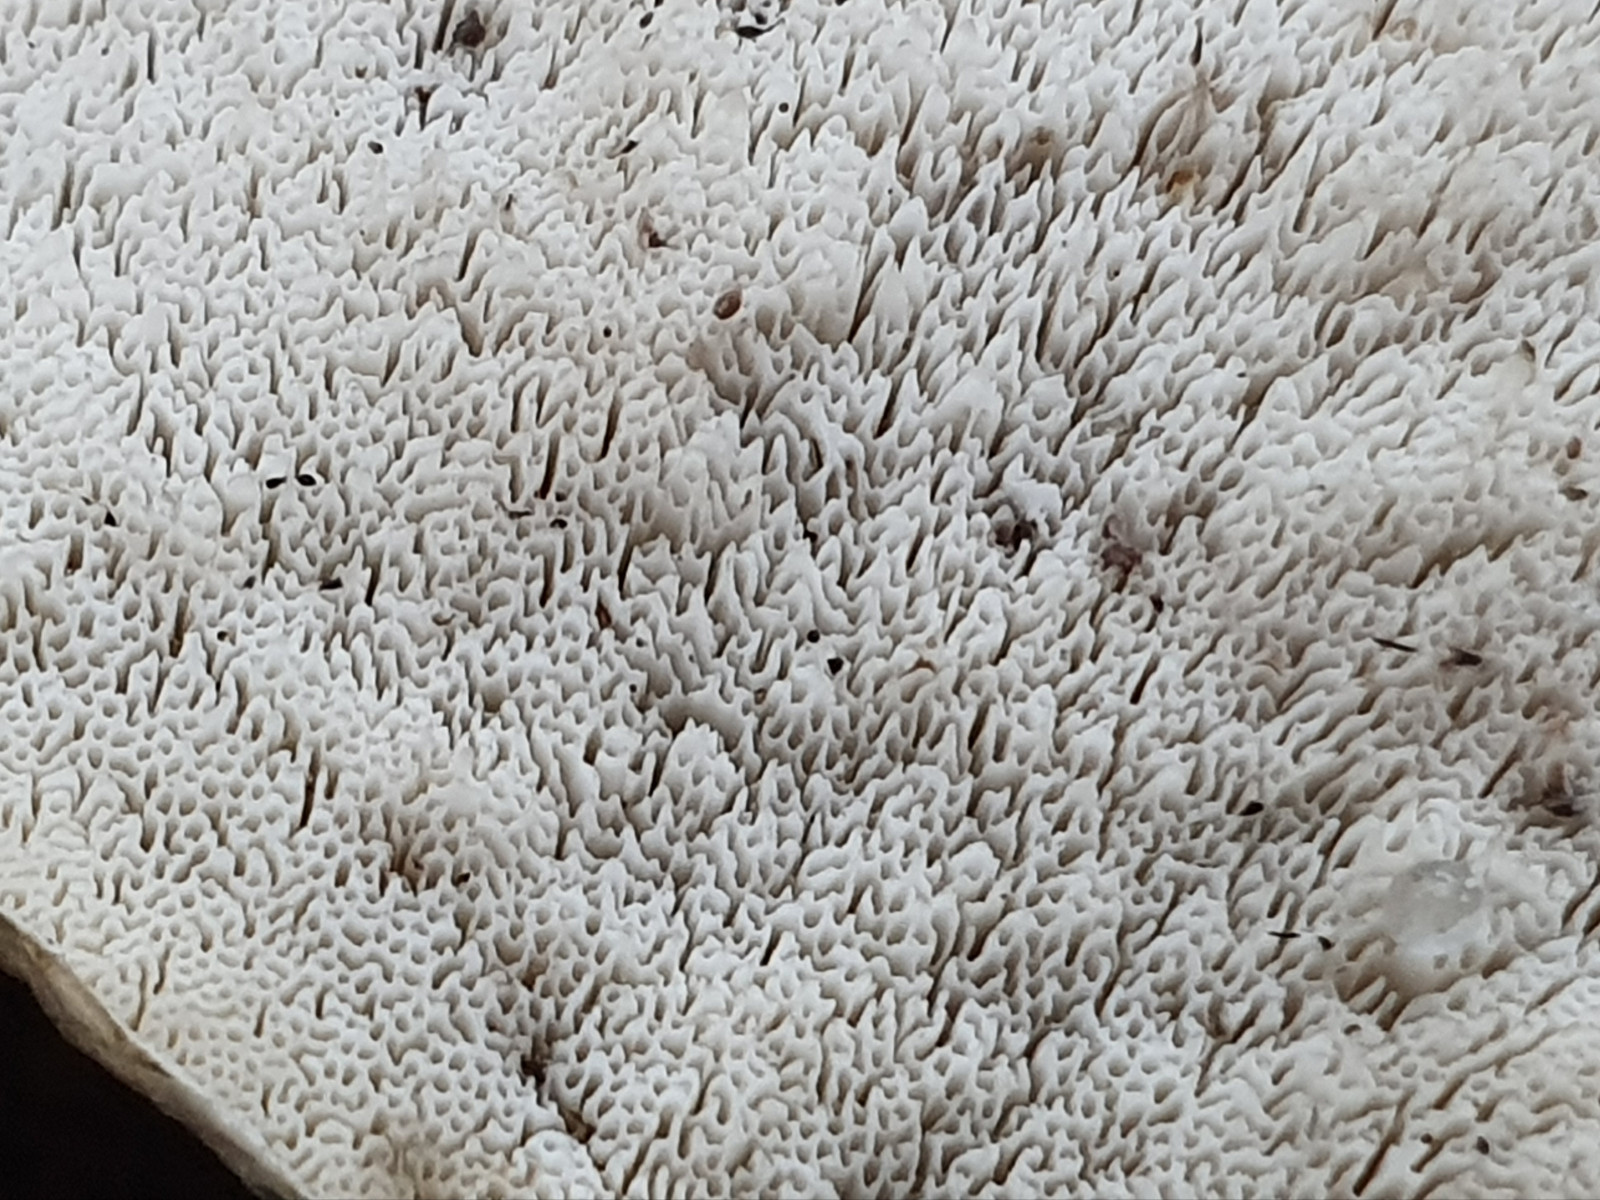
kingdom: Fungi
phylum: Basidiomycota
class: Agaricomycetes
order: Polyporales
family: Polyporaceae
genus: Cyanosporus
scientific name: Cyanosporus alni
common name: blegblå kødporesvamp
